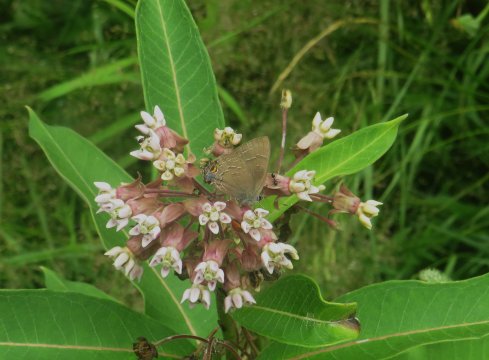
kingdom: Animalia
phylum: Arthropoda
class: Insecta
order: Lepidoptera
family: Lycaenidae
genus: Satyrium
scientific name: Satyrium calanus
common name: Banded Hairstreak
